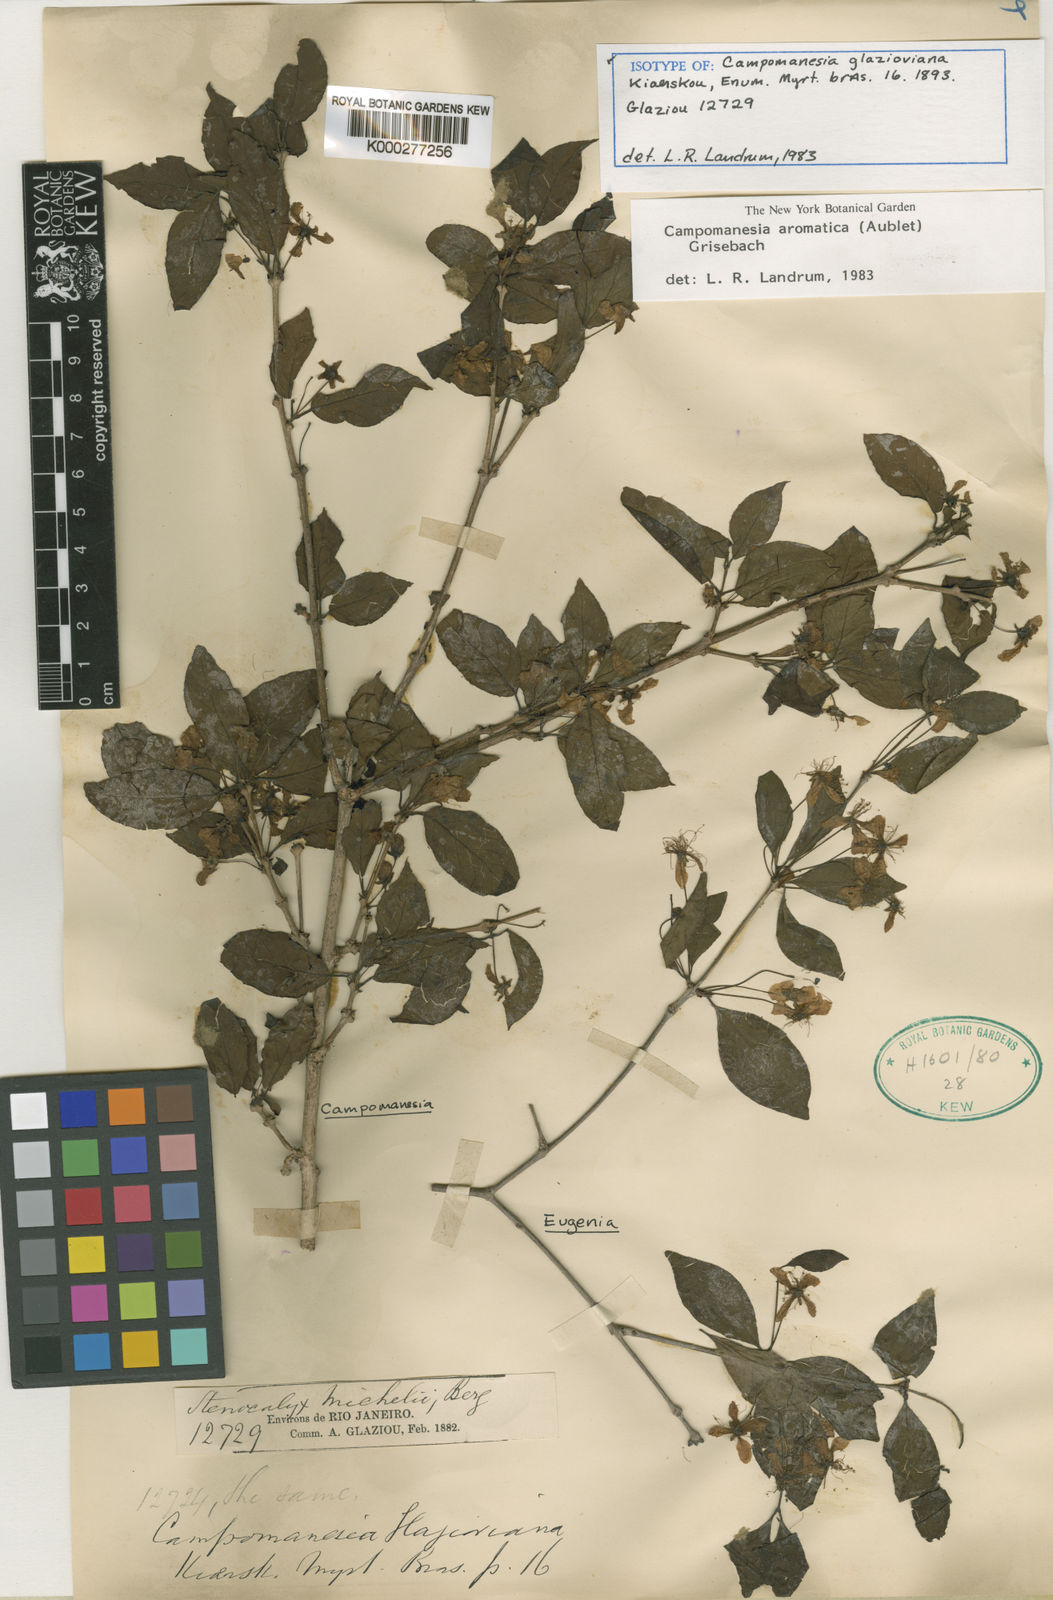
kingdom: Plantae
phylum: Tracheophyta
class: Magnoliopsida
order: Myrtales
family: Myrtaceae
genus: Campomanesia
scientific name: Campomanesia aromatica
